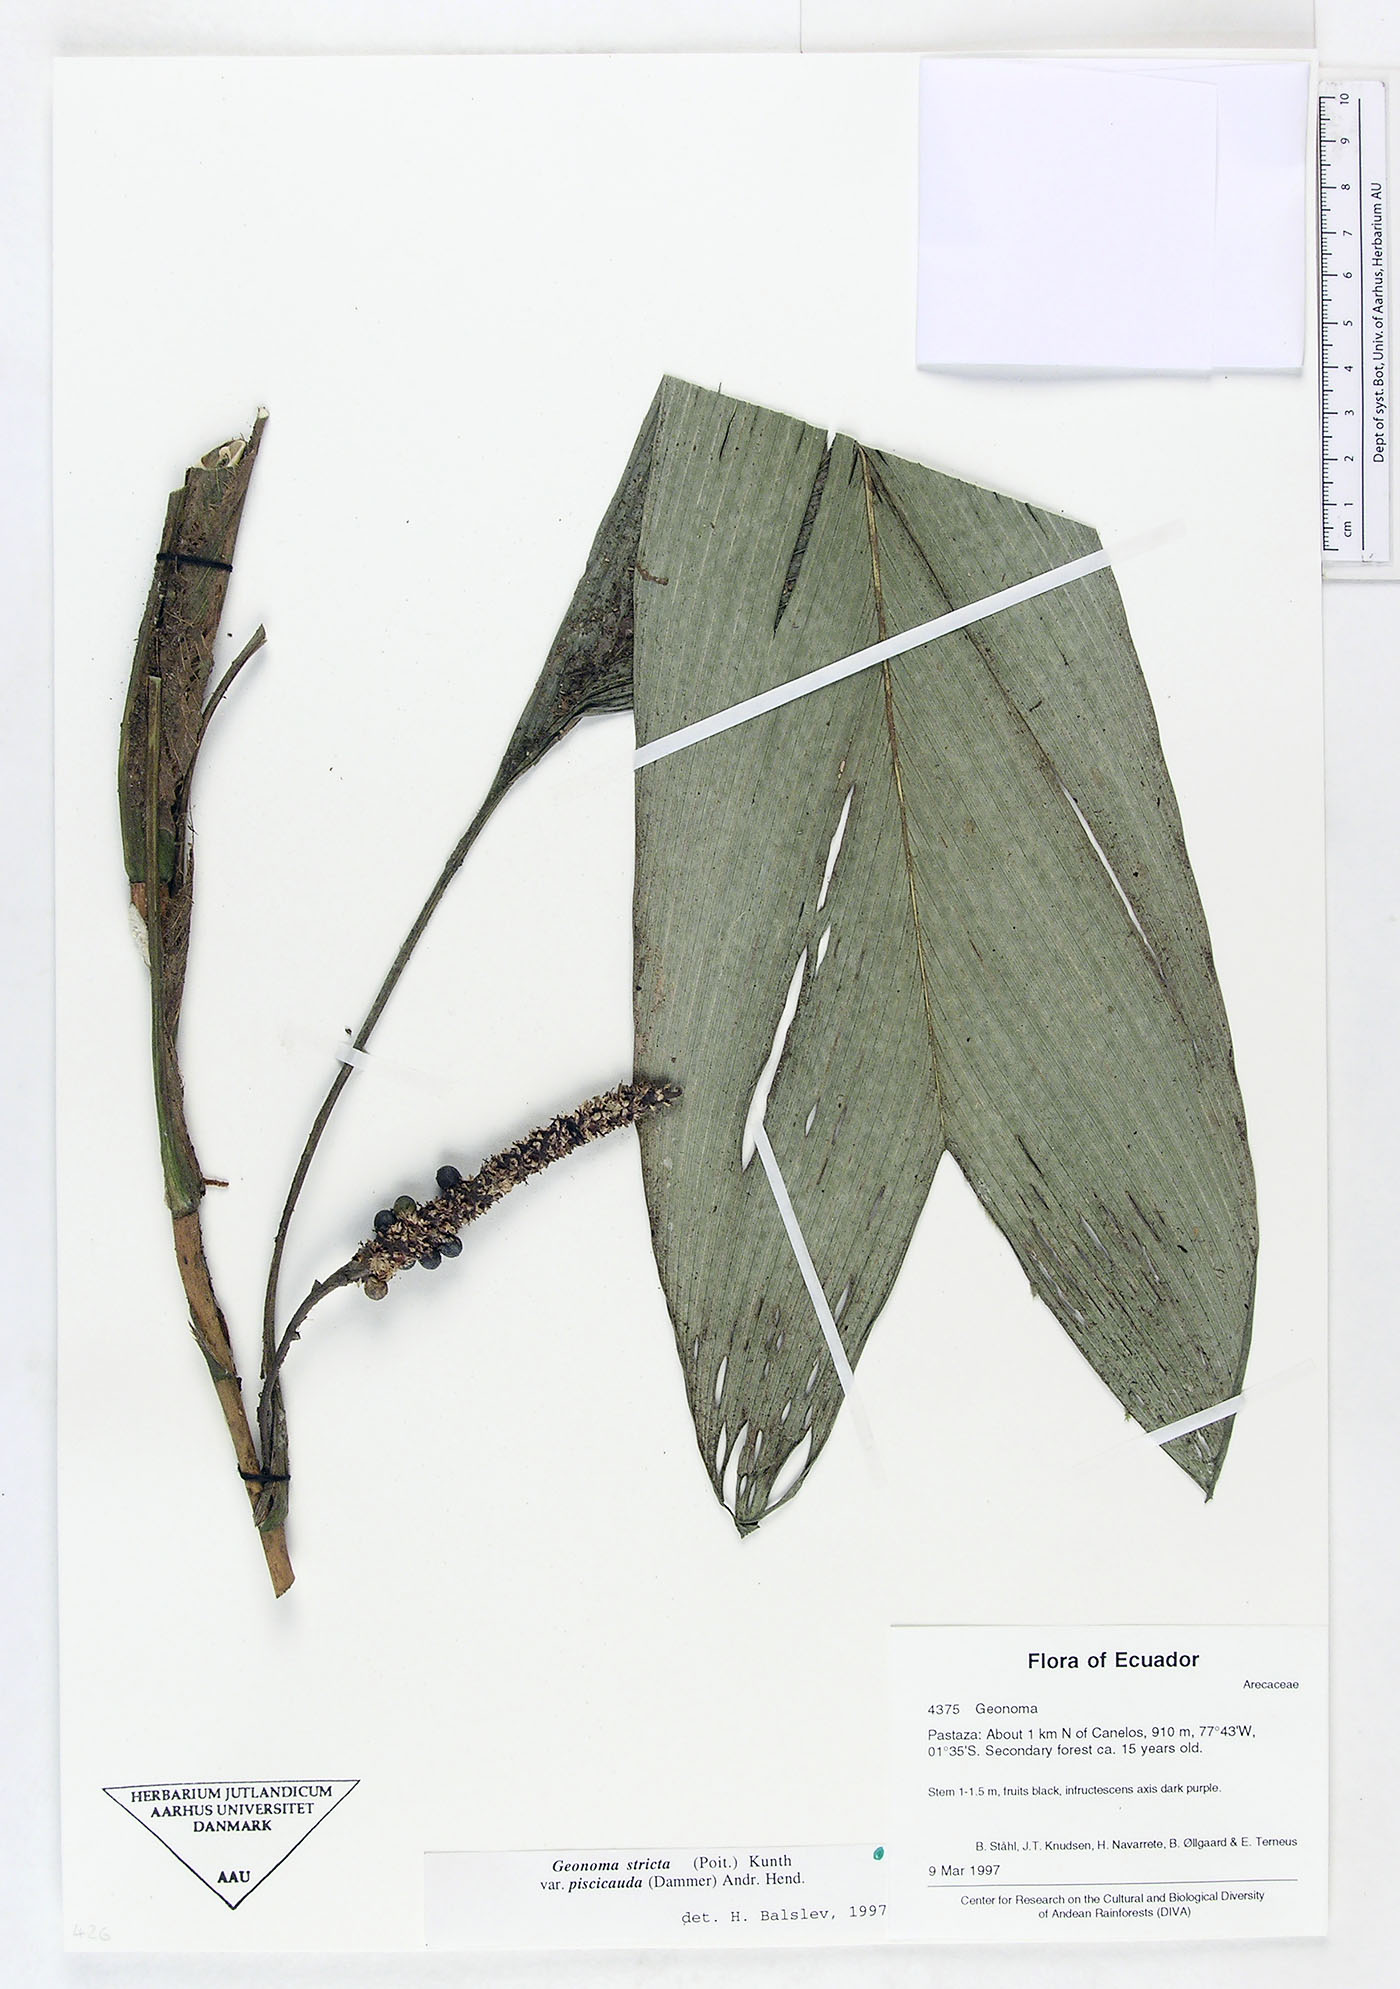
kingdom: Plantae
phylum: Tracheophyta
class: Liliopsida
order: Arecales
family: Arecaceae
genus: Geonoma
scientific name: Geonoma stricta
